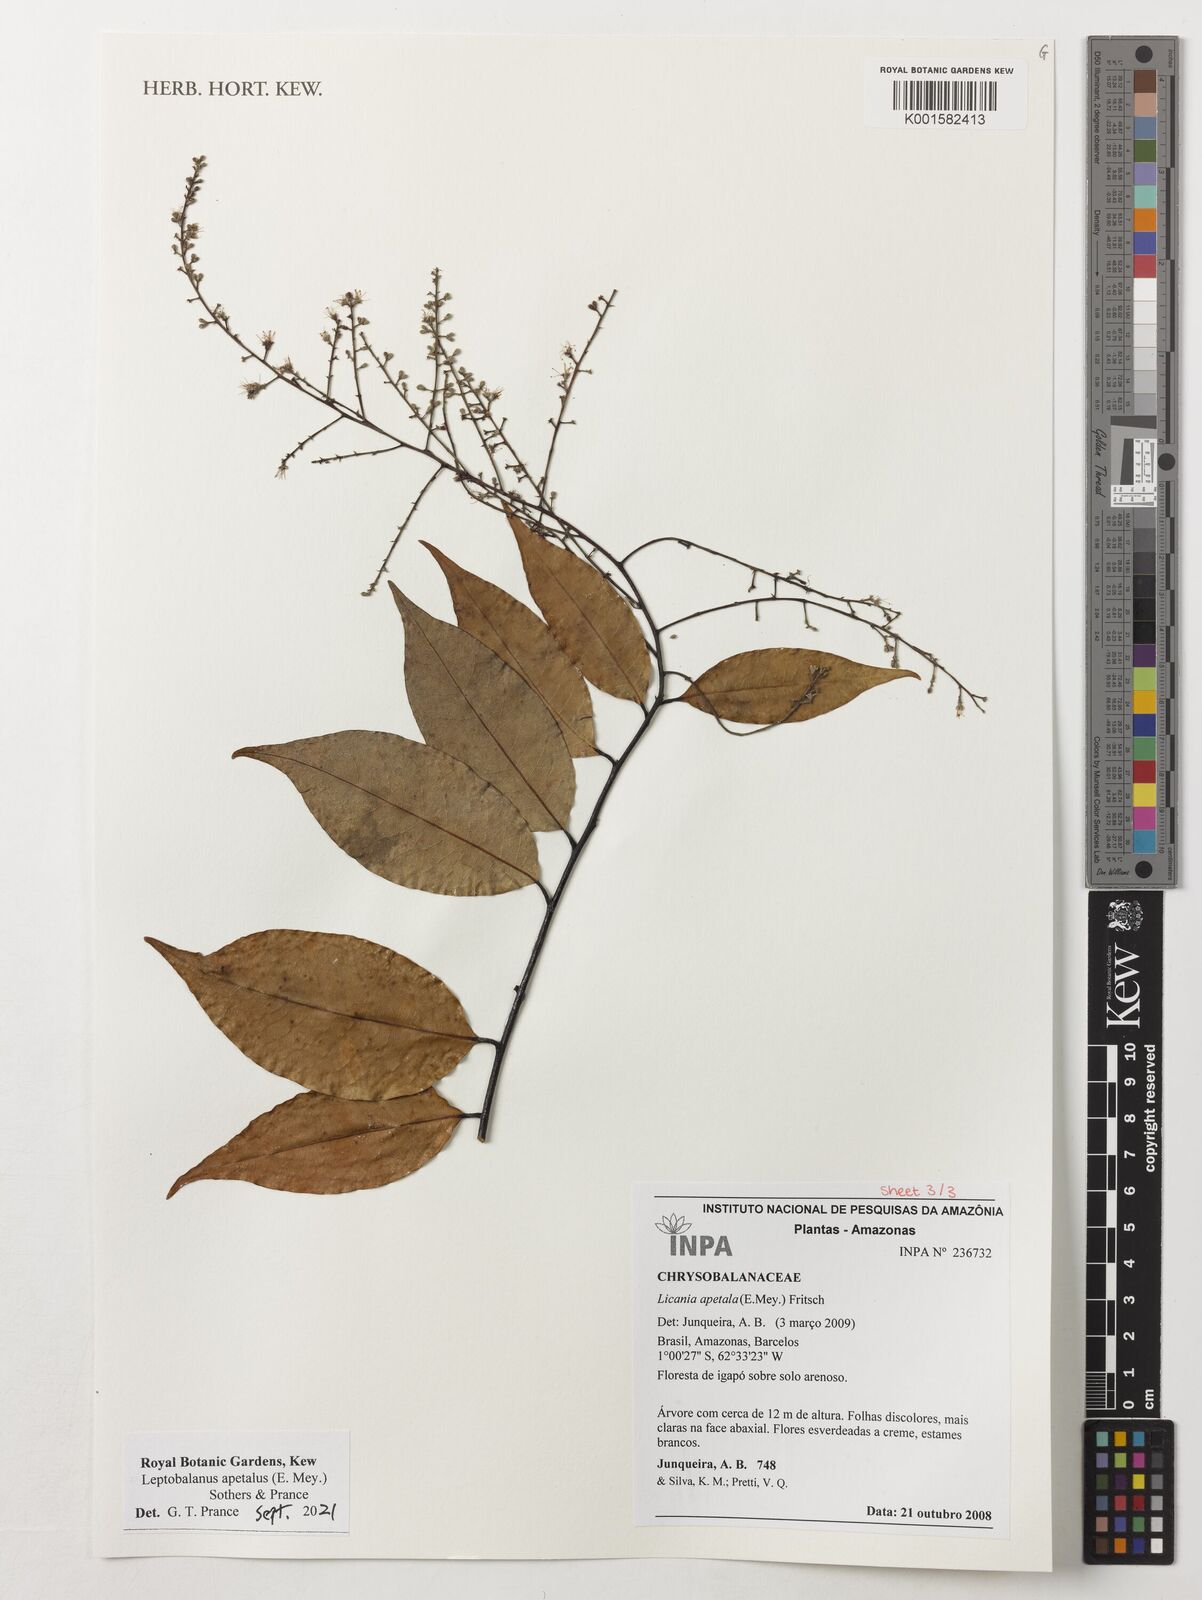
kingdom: Plantae
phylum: Tracheophyta
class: Magnoliopsida
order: Malpighiales
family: Chrysobalanaceae
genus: Leptobalanus
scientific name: Leptobalanus apetalus
